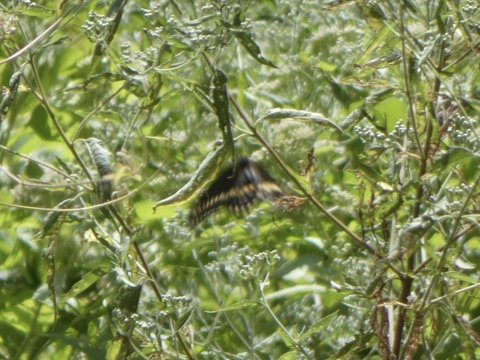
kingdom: Animalia
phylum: Arthropoda
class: Insecta
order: Lepidoptera
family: Papilionidae
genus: Papilio
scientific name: Papilio polyxenes
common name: Black Swallowtail
